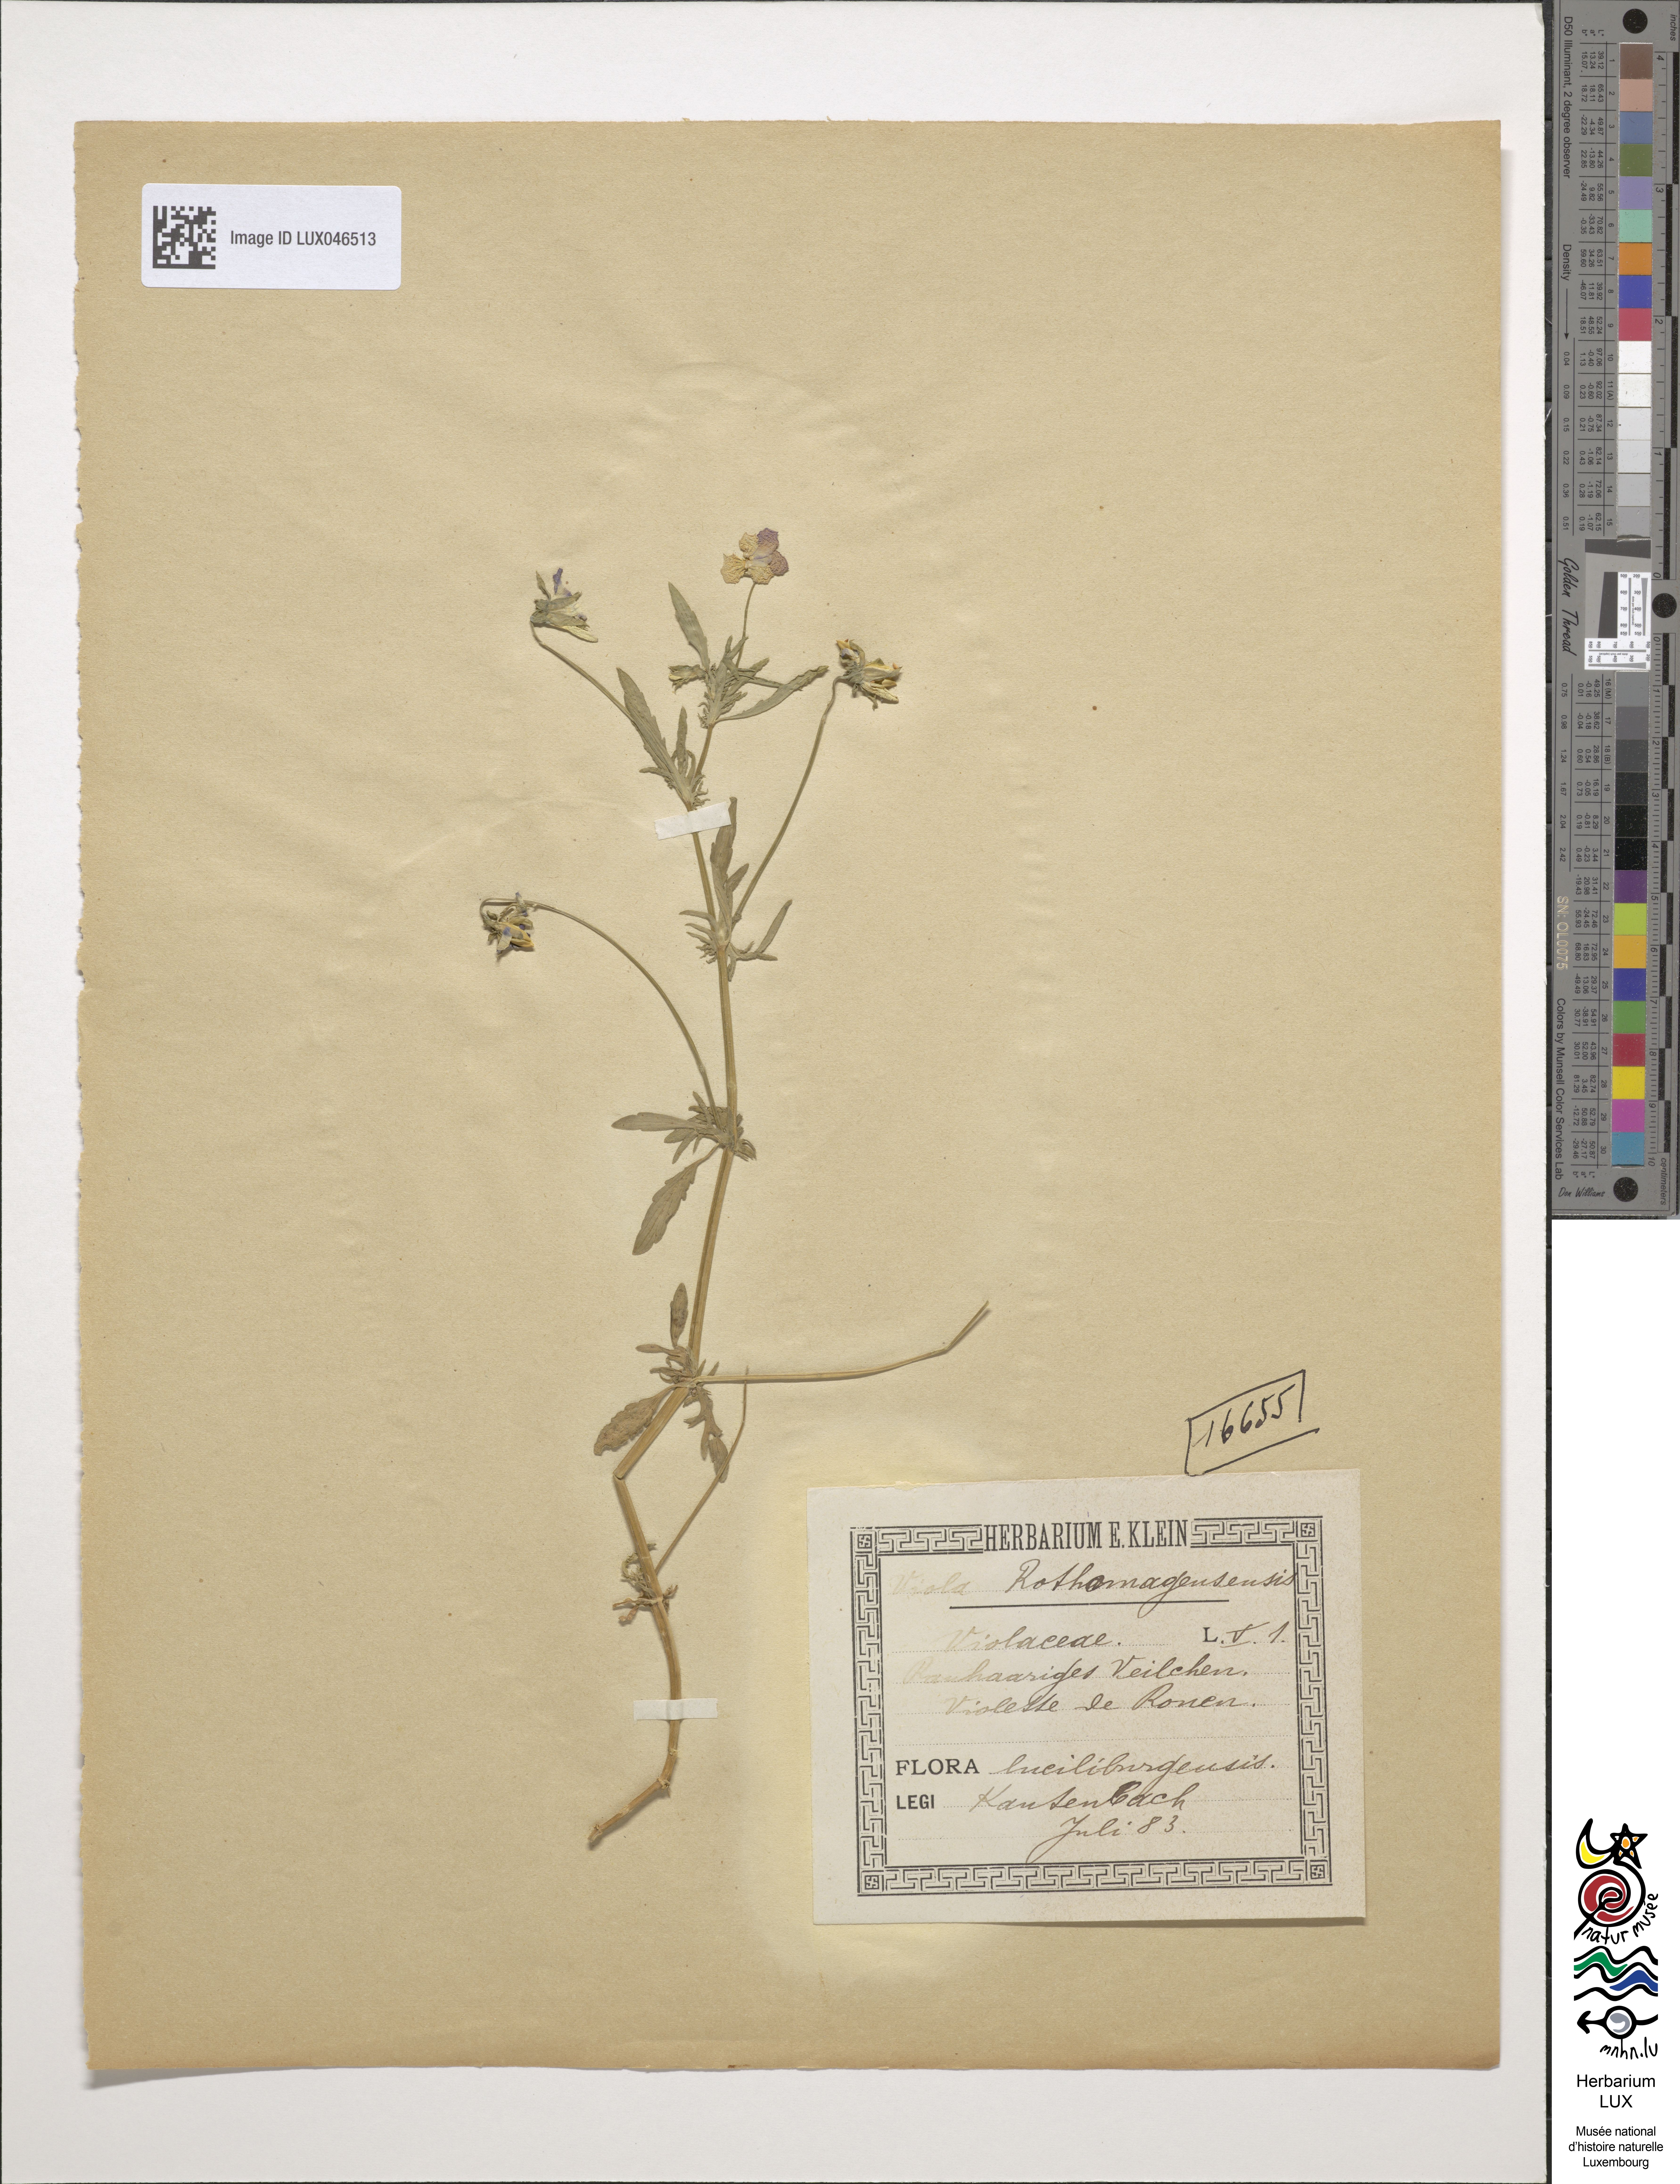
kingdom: Plantae
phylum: Tracheophyta
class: Magnoliopsida
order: Malpighiales
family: Violaceae
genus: Viola
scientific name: Viola hispida
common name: Rouen pansy
